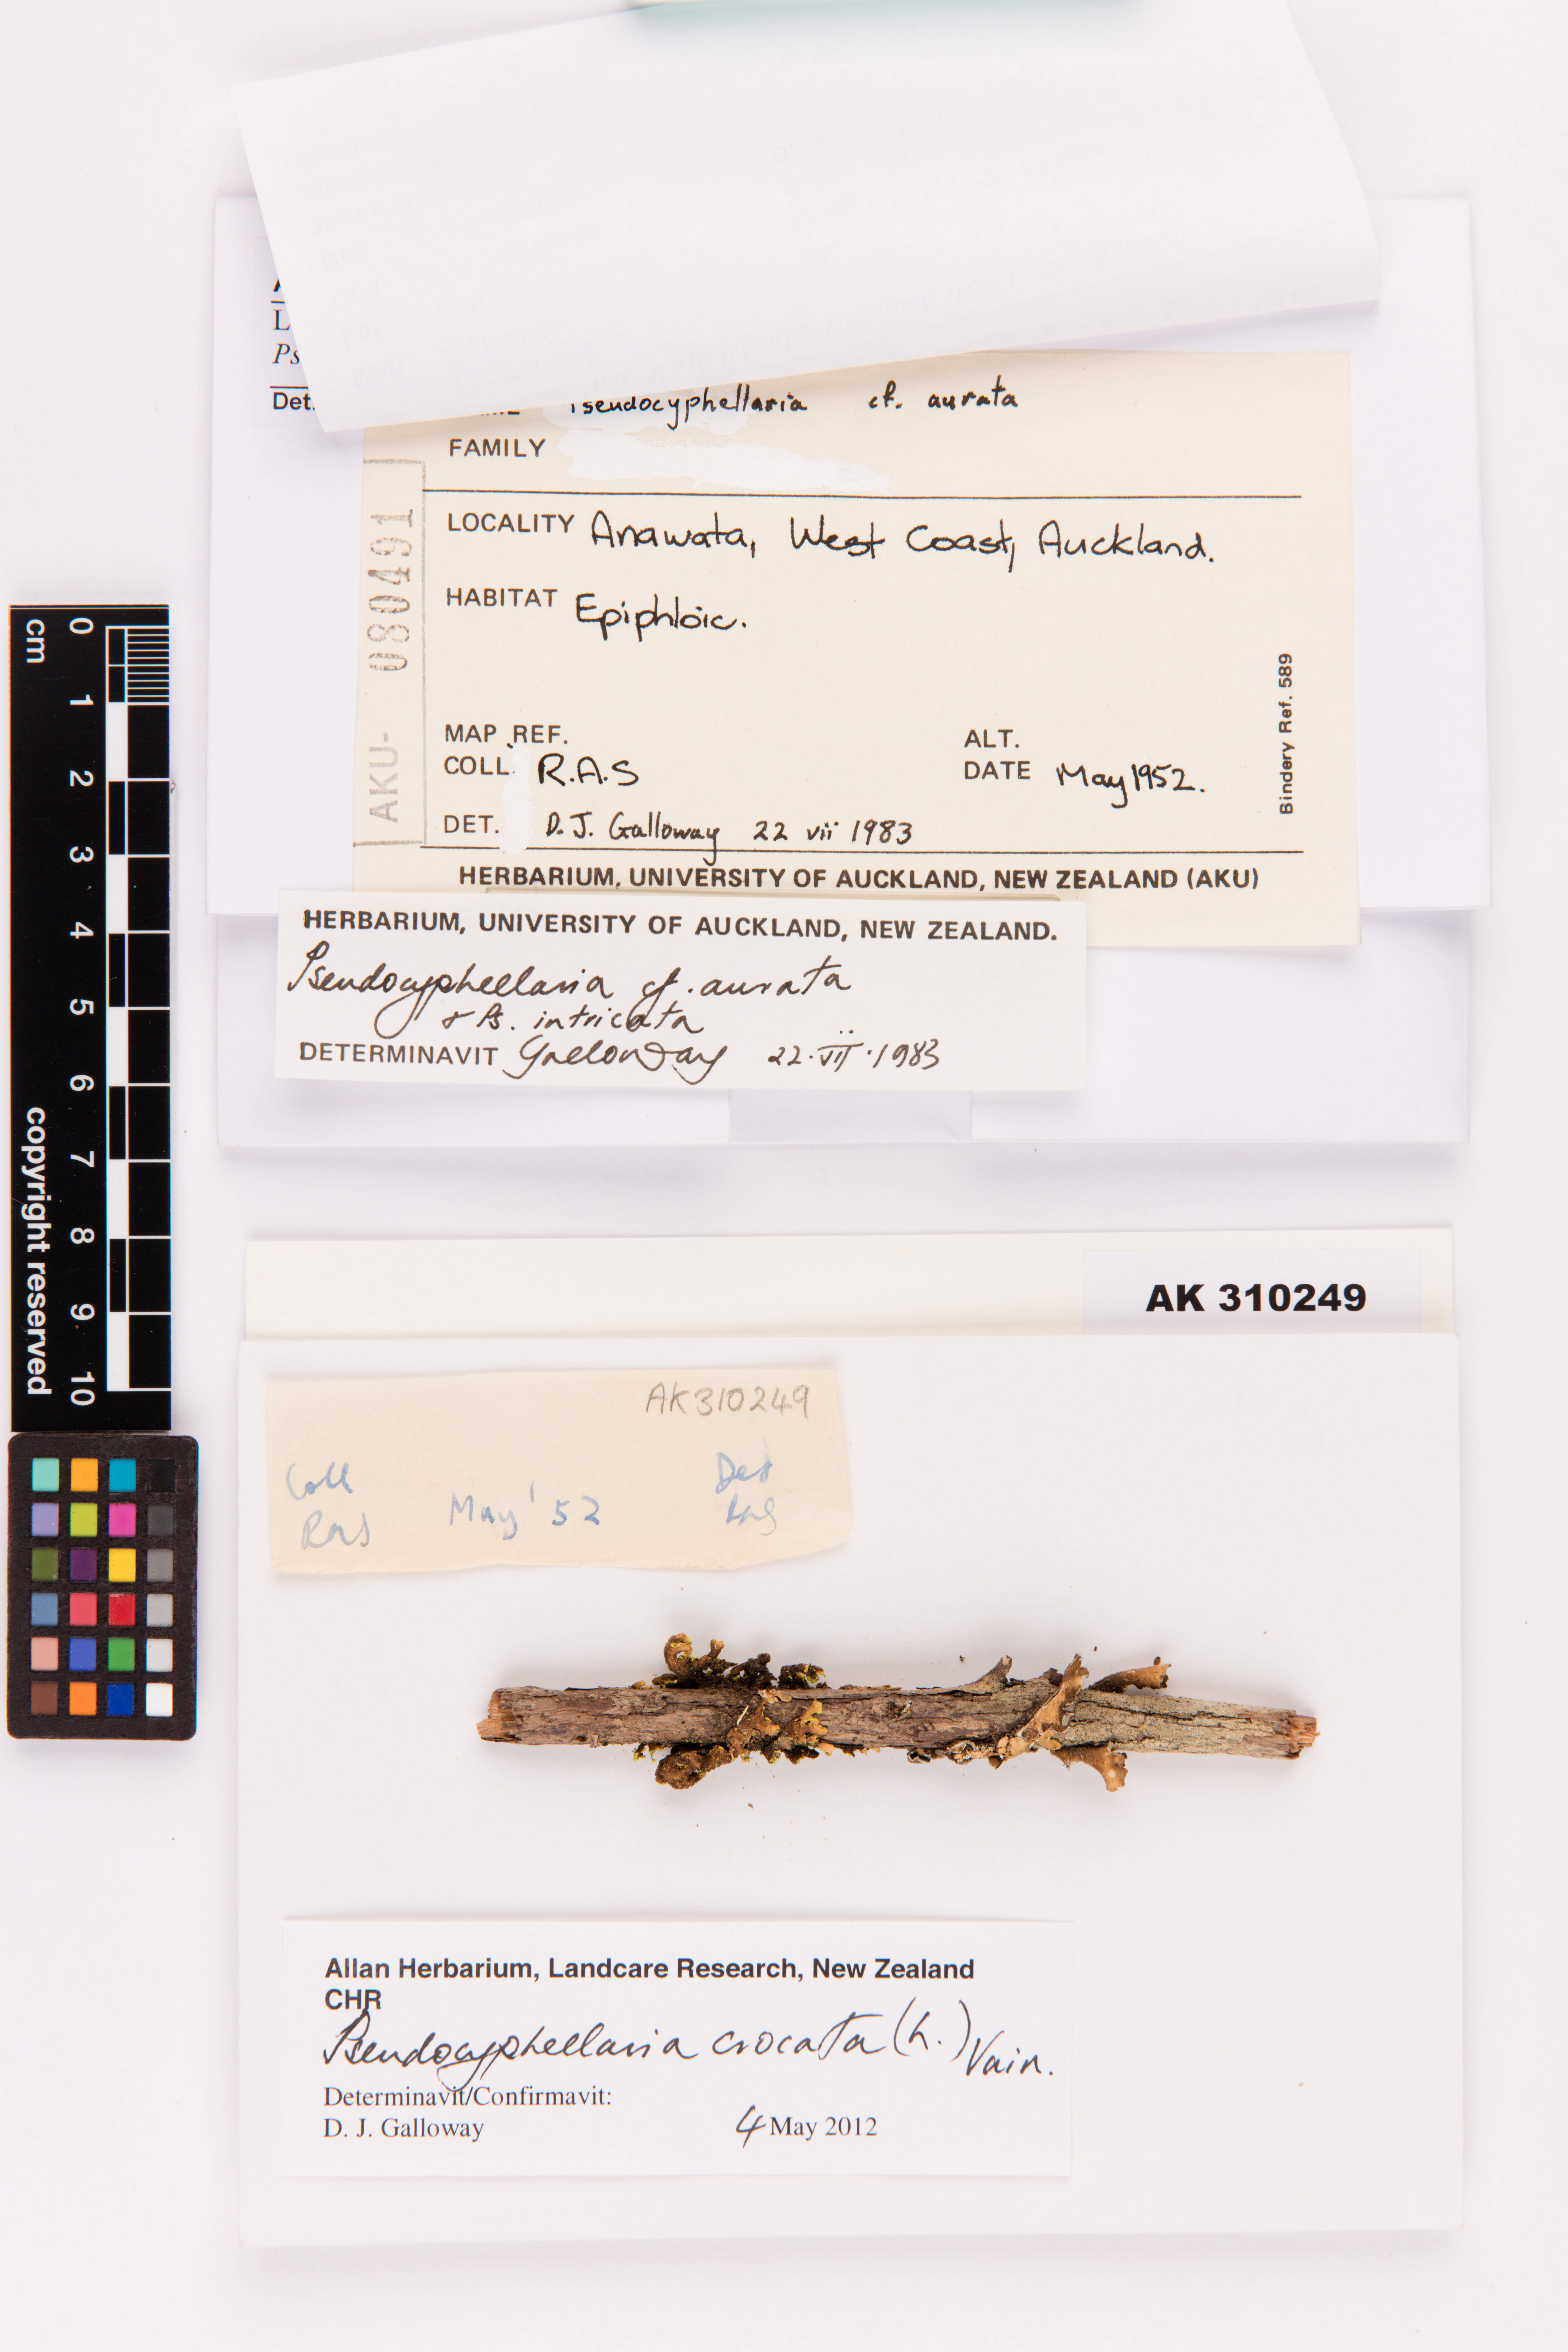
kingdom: Fungi
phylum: Ascomycota
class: Lecanoromycetes
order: Peltigerales
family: Lobariaceae
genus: Pseudocyphellaria
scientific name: Pseudocyphellaria crocata
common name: Golden specklebelly
